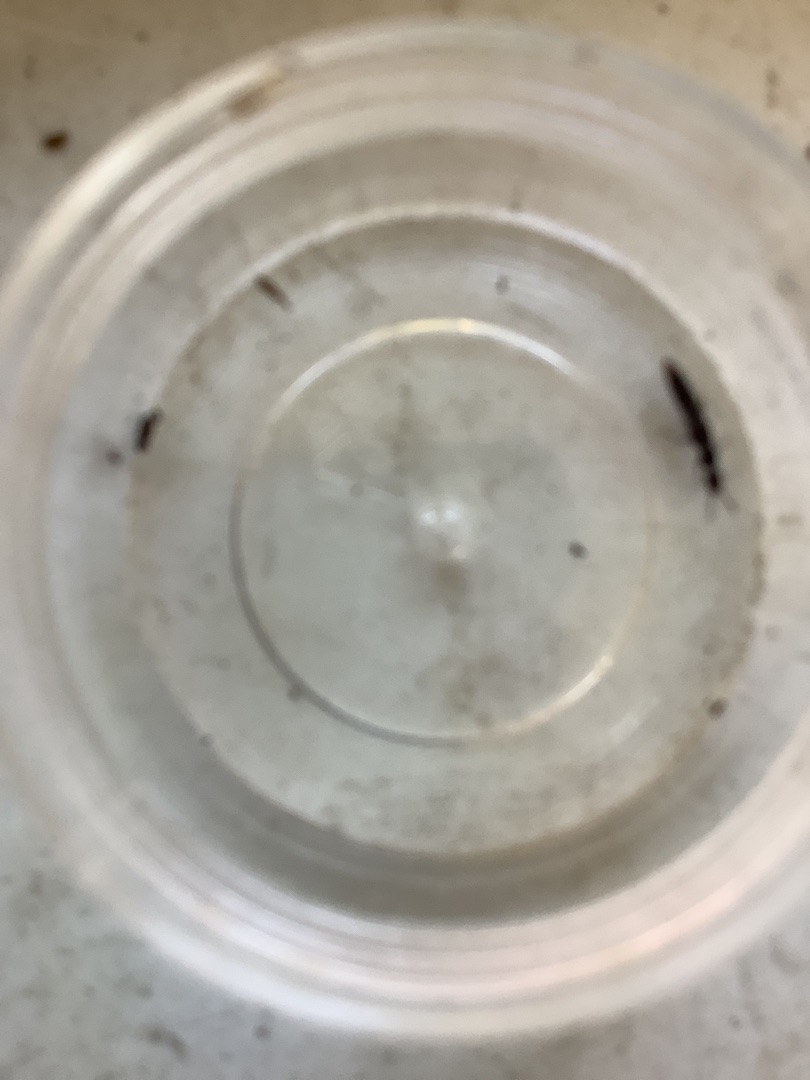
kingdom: Animalia
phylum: Arthropoda
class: Insecta
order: Coleoptera
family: Staphylinidae
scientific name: Staphylinidae
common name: Rovbiller
